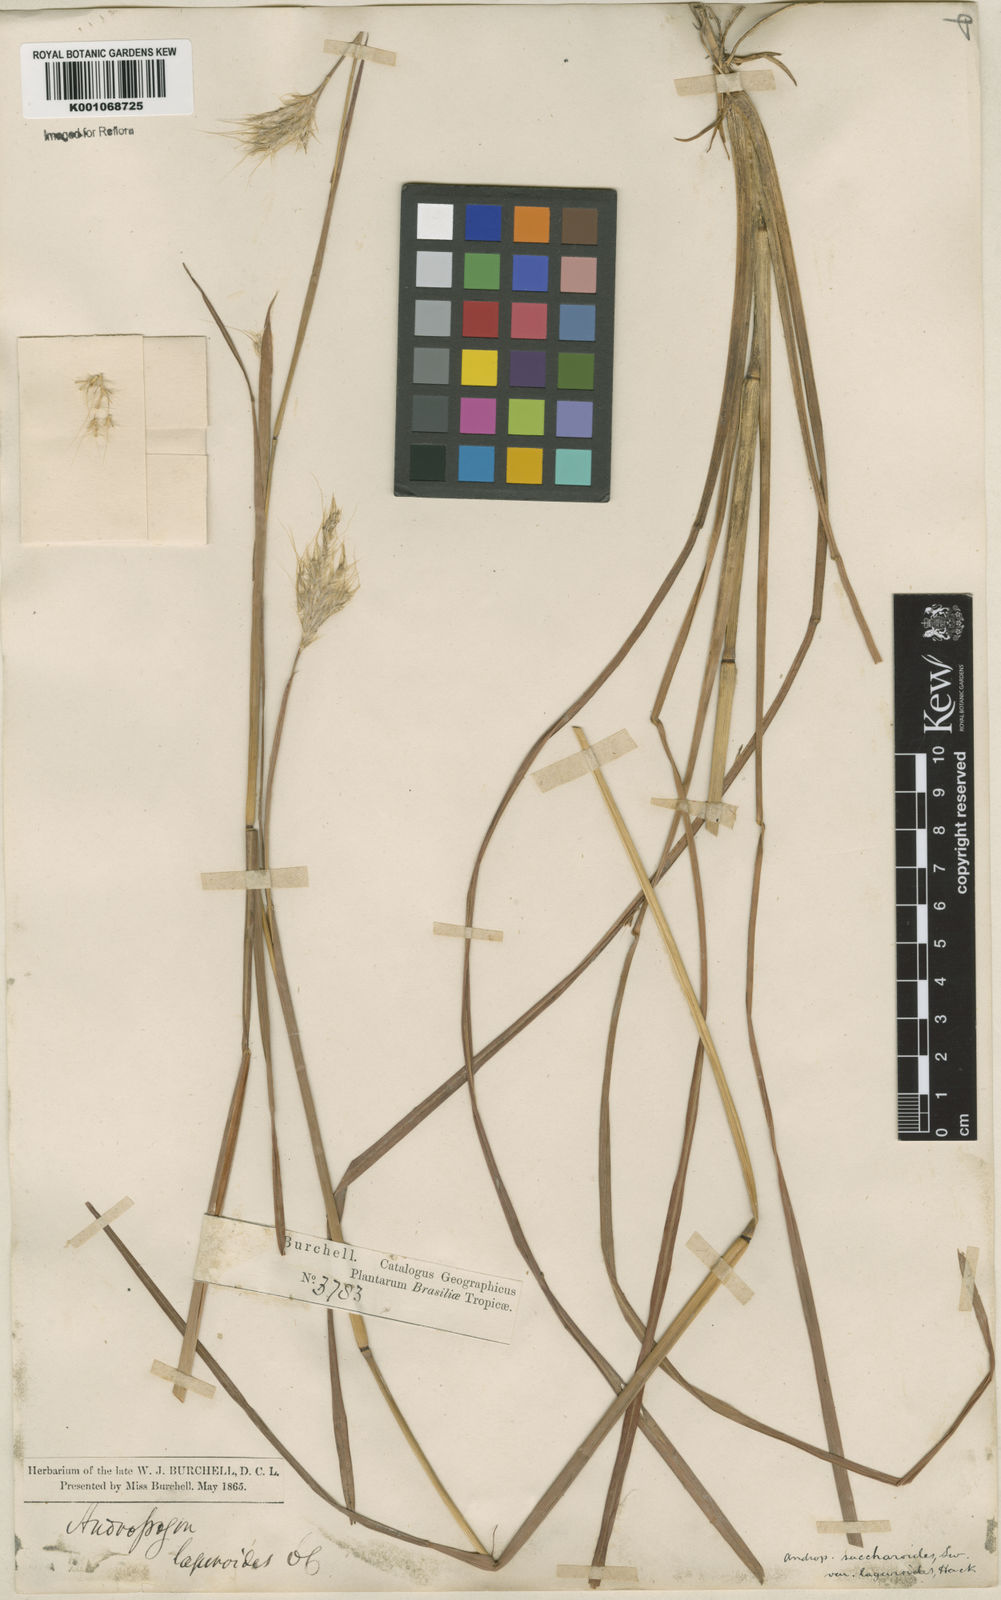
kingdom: Plantae
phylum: Tracheophyta
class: Liliopsida
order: Poales
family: Poaceae
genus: Bothriochloa
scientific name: Bothriochloa
